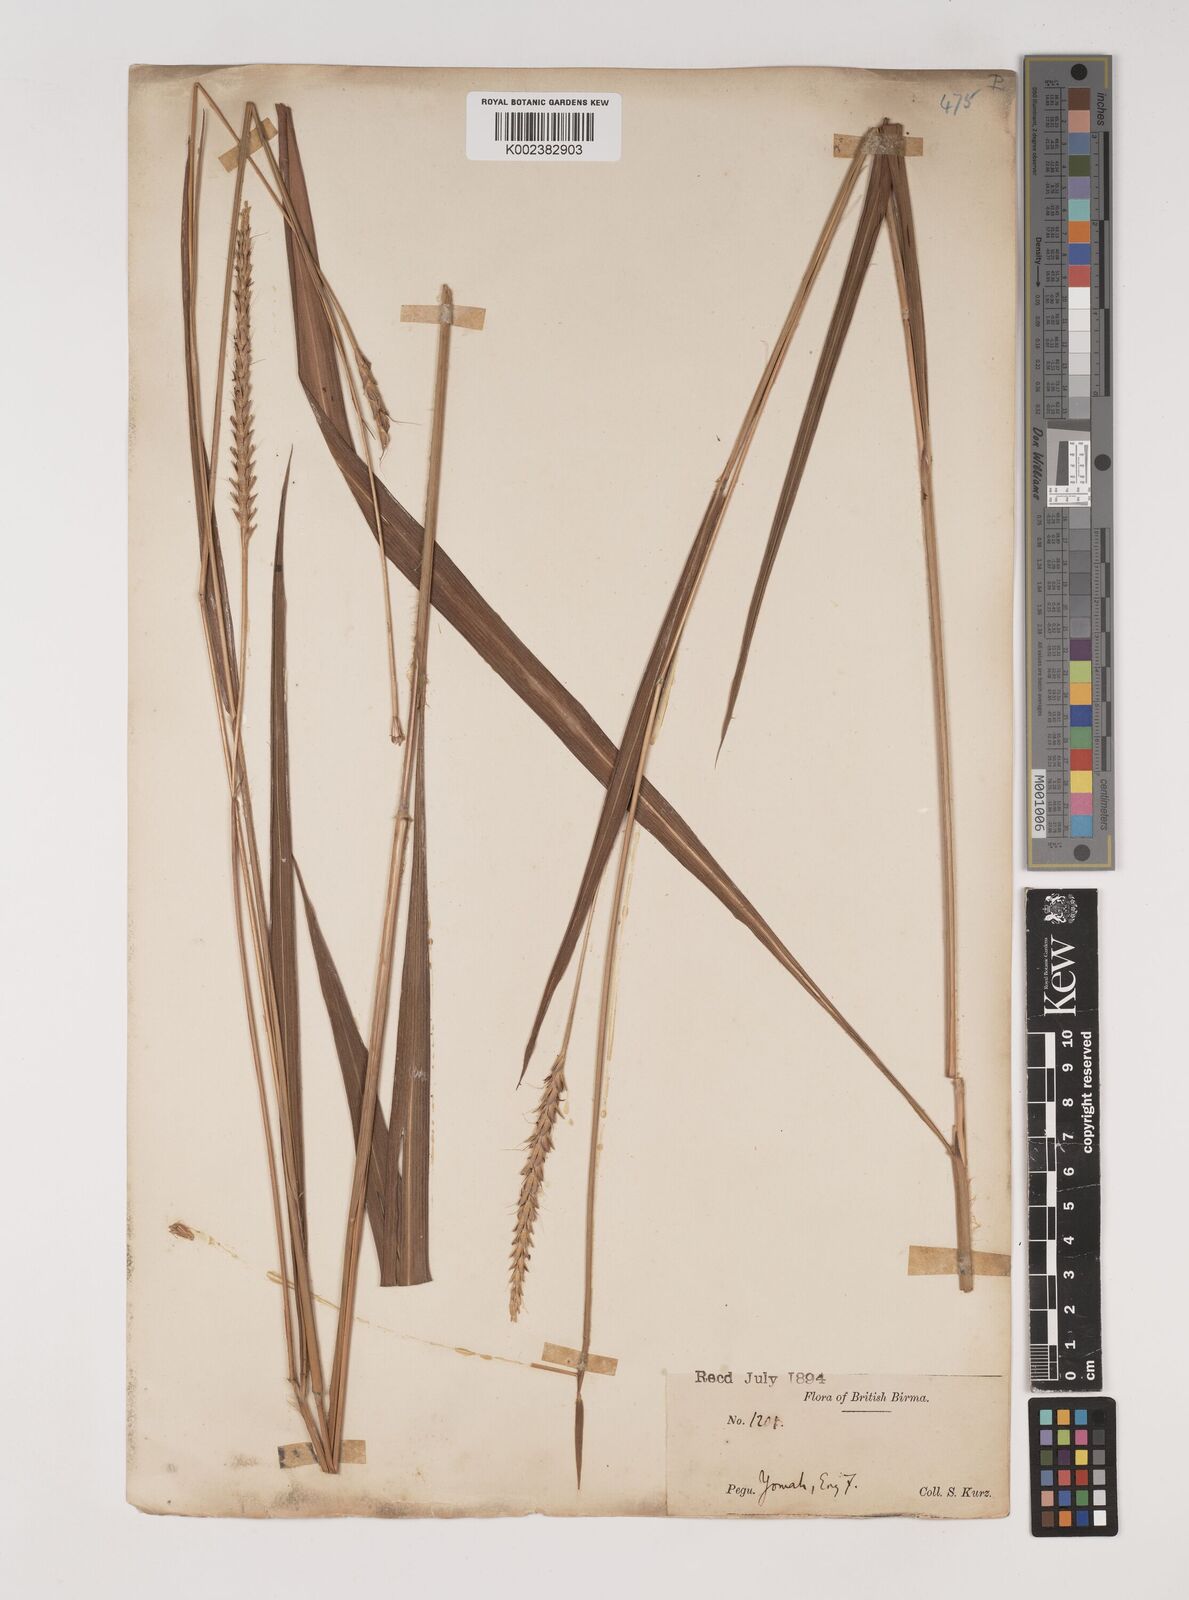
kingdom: Plantae
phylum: Tracheophyta
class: Liliopsida
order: Poales
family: Poaceae
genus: Ischaemum
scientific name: Ischaemum
